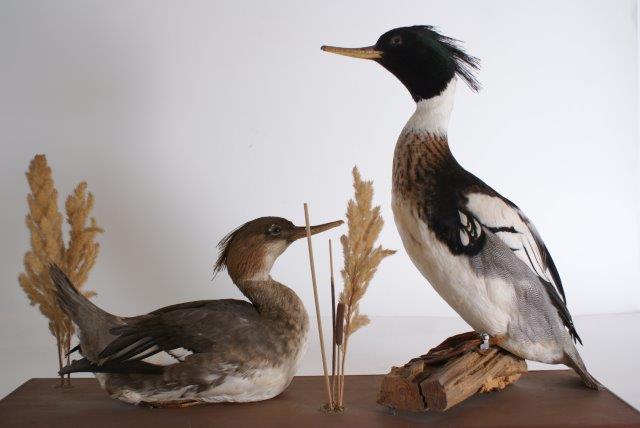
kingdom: Animalia
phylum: Chordata
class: Aves
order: Anseriformes
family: Anatidae
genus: Mergus
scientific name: Mergus serrator
